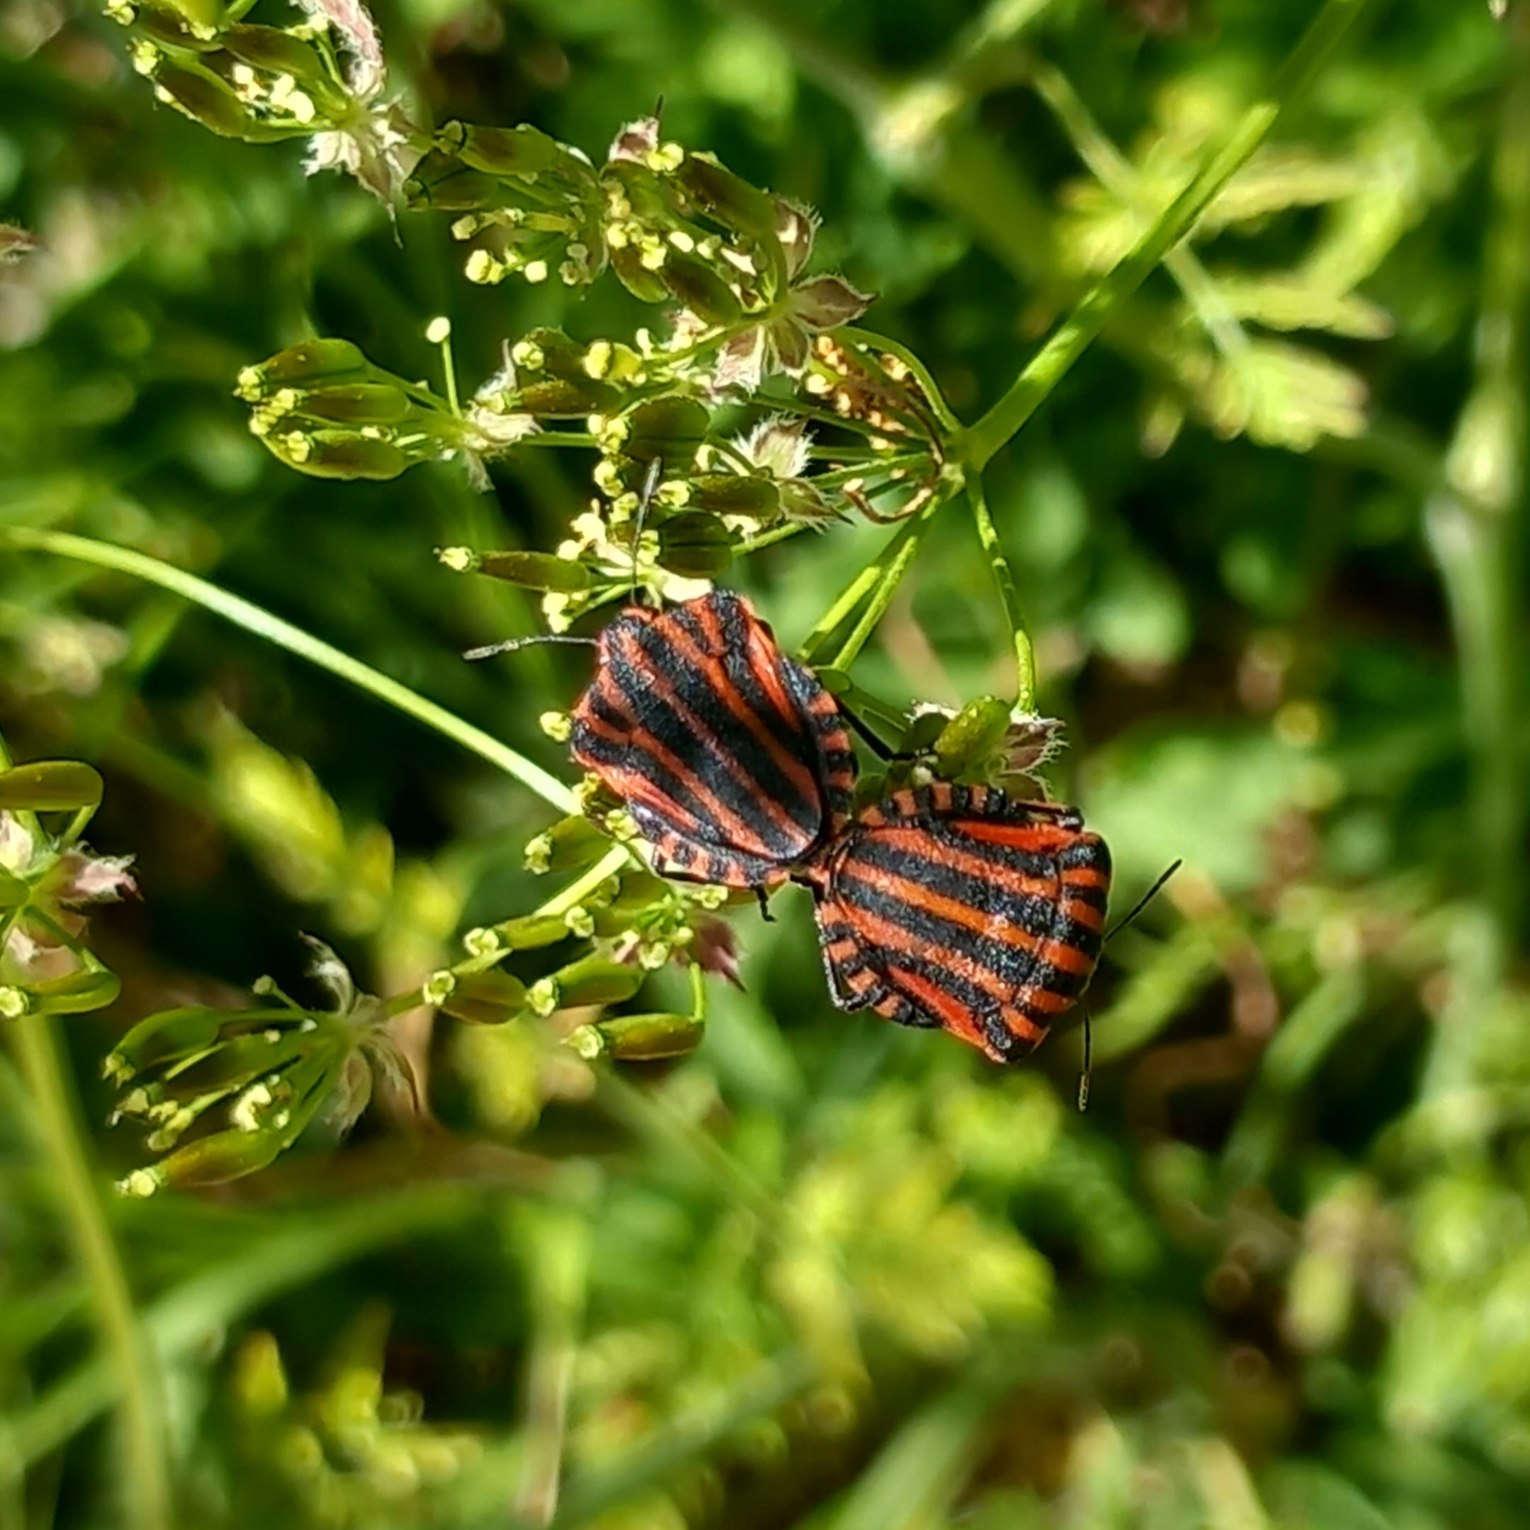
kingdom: Animalia
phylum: Arthropoda
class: Insecta
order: Hemiptera
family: Pentatomidae
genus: Graphosoma
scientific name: Graphosoma italicum
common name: Stribetæge
